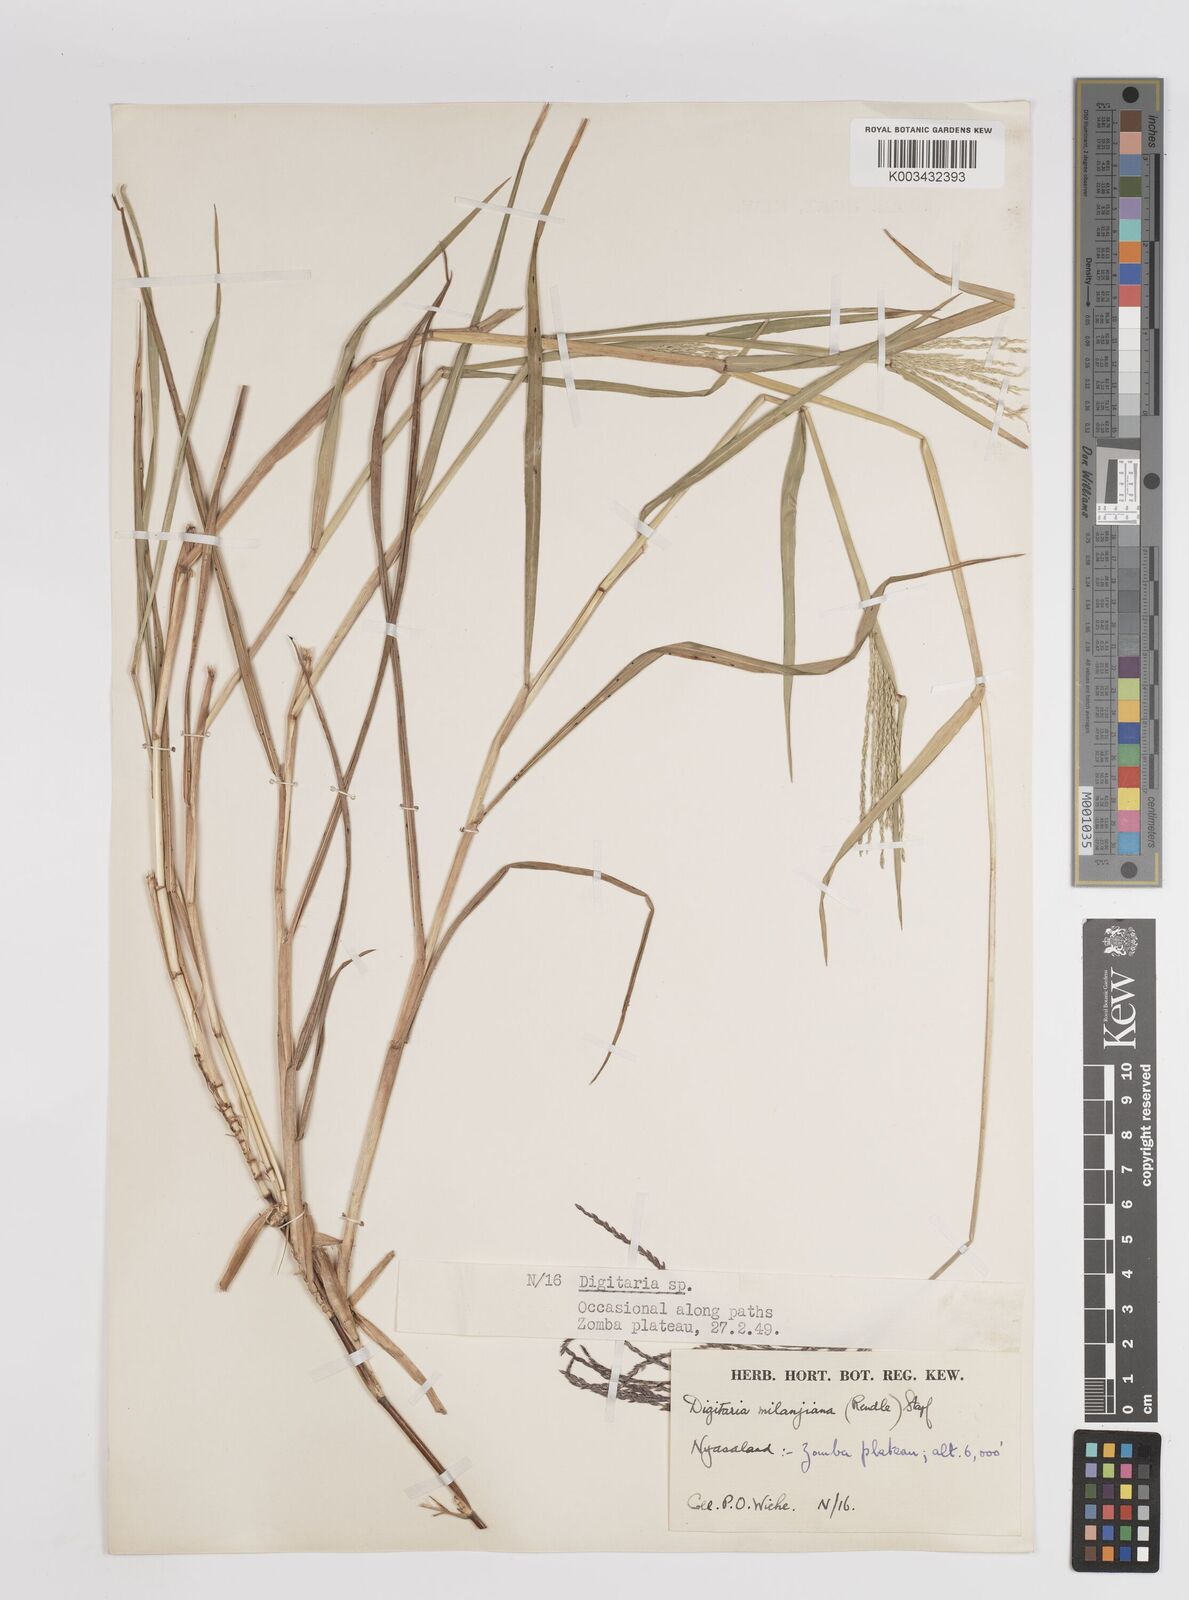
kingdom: Plantae
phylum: Tracheophyta
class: Liliopsida
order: Poales
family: Poaceae
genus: Digitaria
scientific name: Digitaria eriantha
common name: Digitgrass
